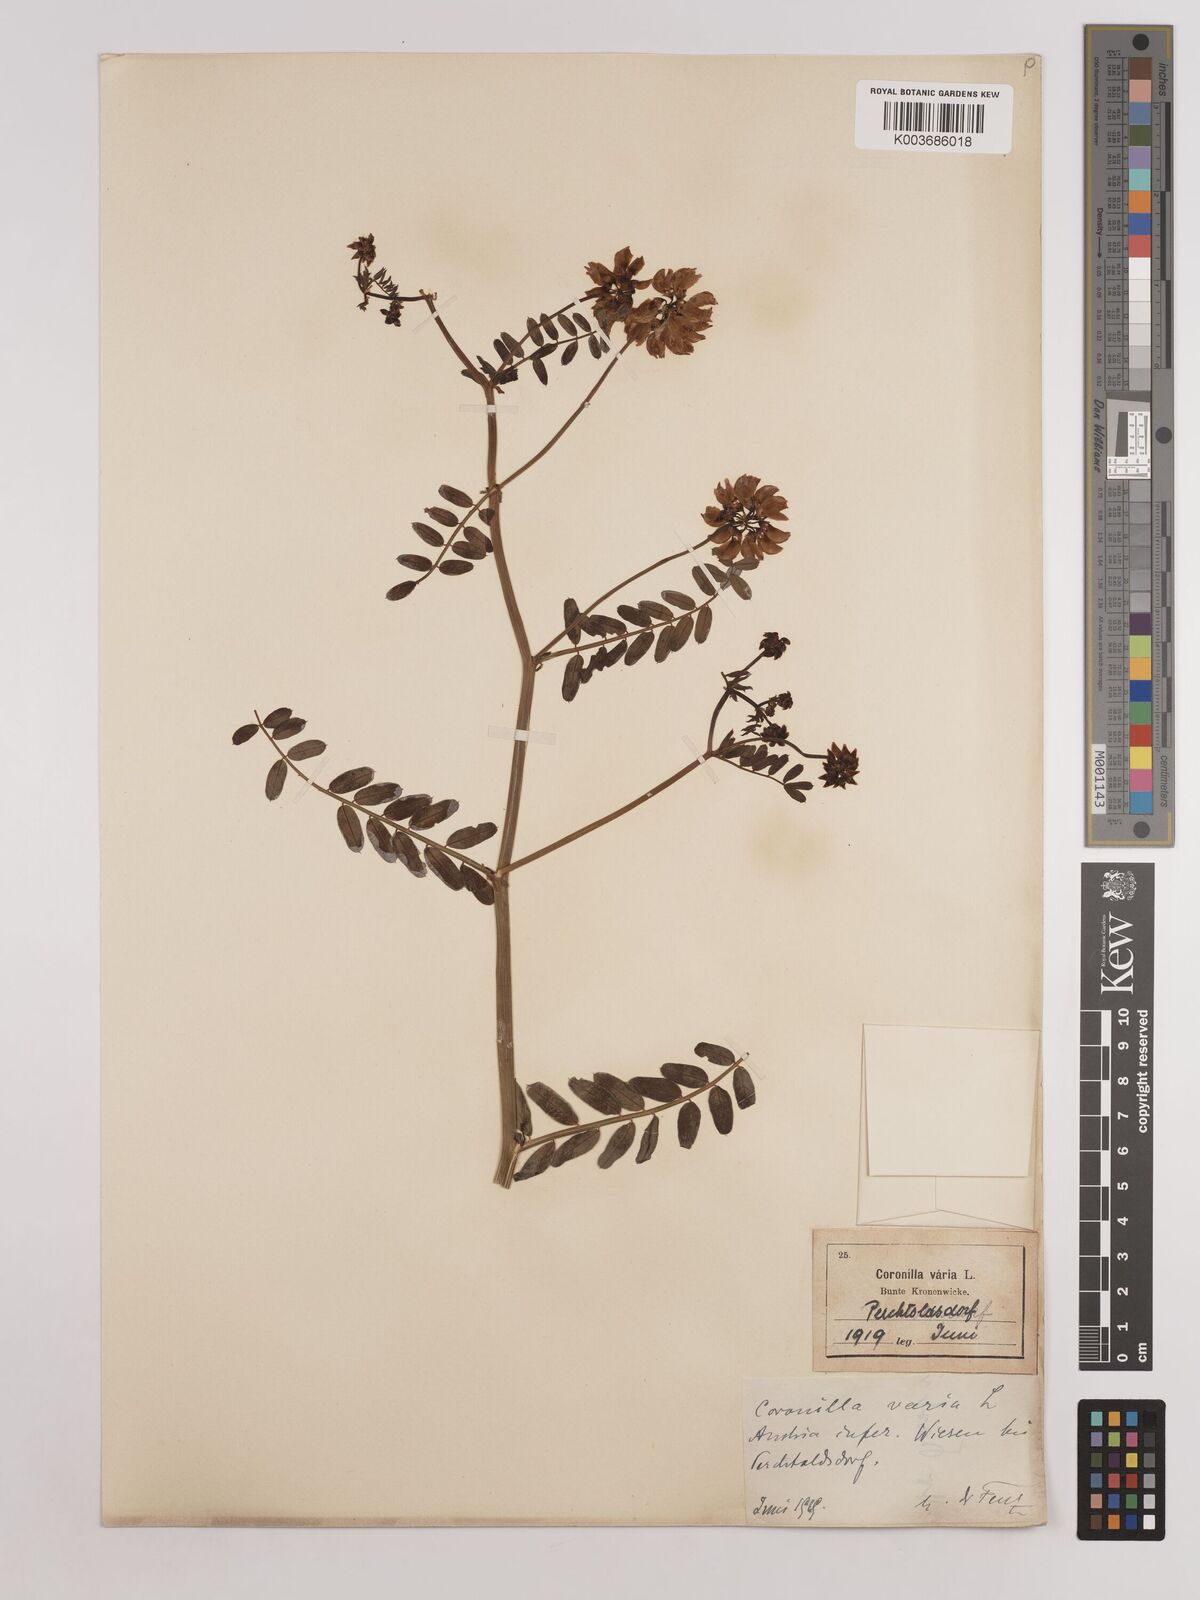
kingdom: Plantae
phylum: Tracheophyta
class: Magnoliopsida
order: Fabales
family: Fabaceae
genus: Coronilla
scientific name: Coronilla varia
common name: Crownvetch
